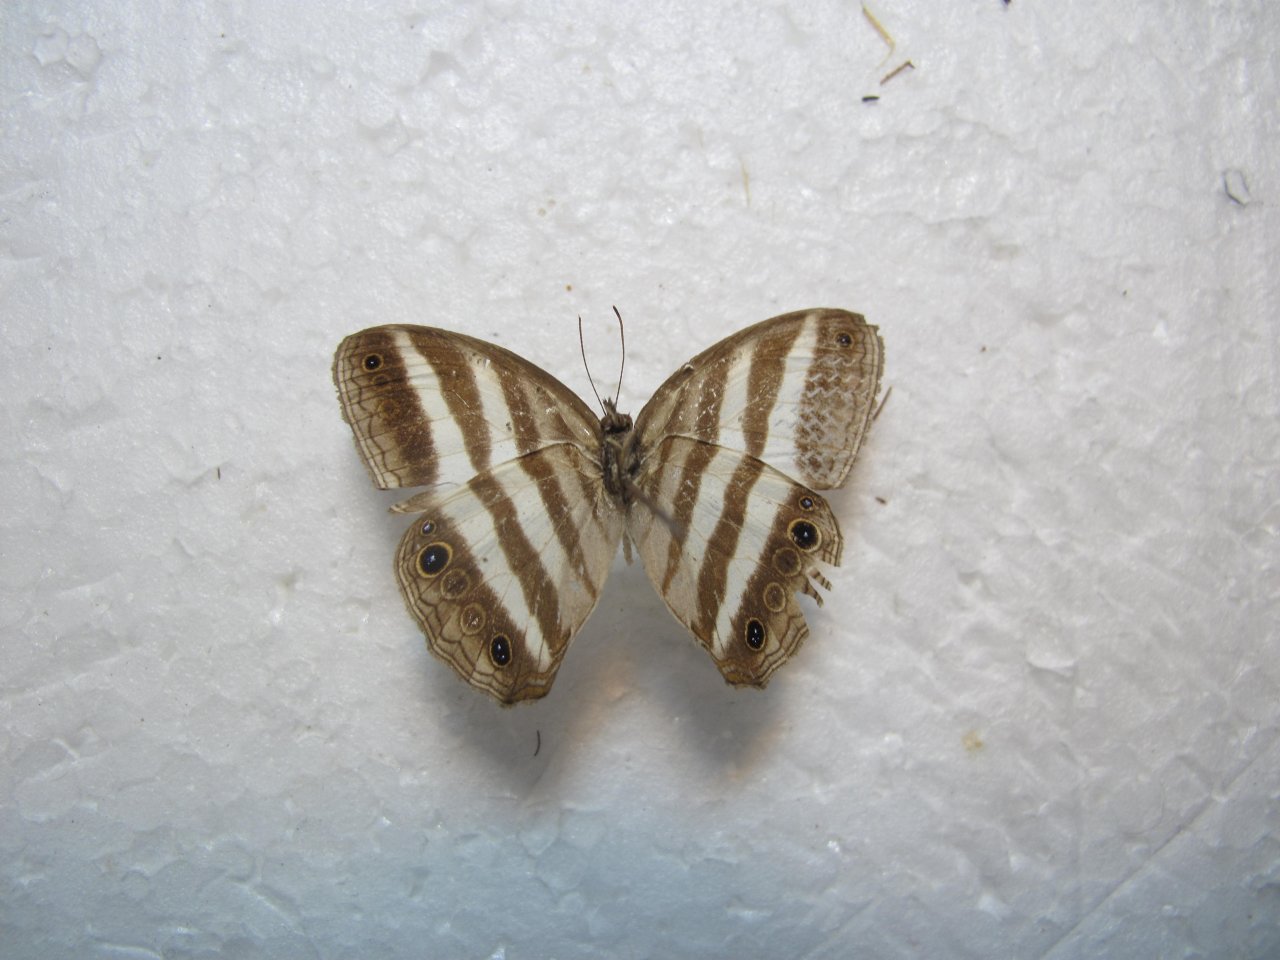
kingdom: Animalia
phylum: Arthropoda
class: Insecta
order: Lepidoptera
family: Nymphalidae
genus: Pareuptychia
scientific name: Pareuptychia hesione
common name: White Satyr
